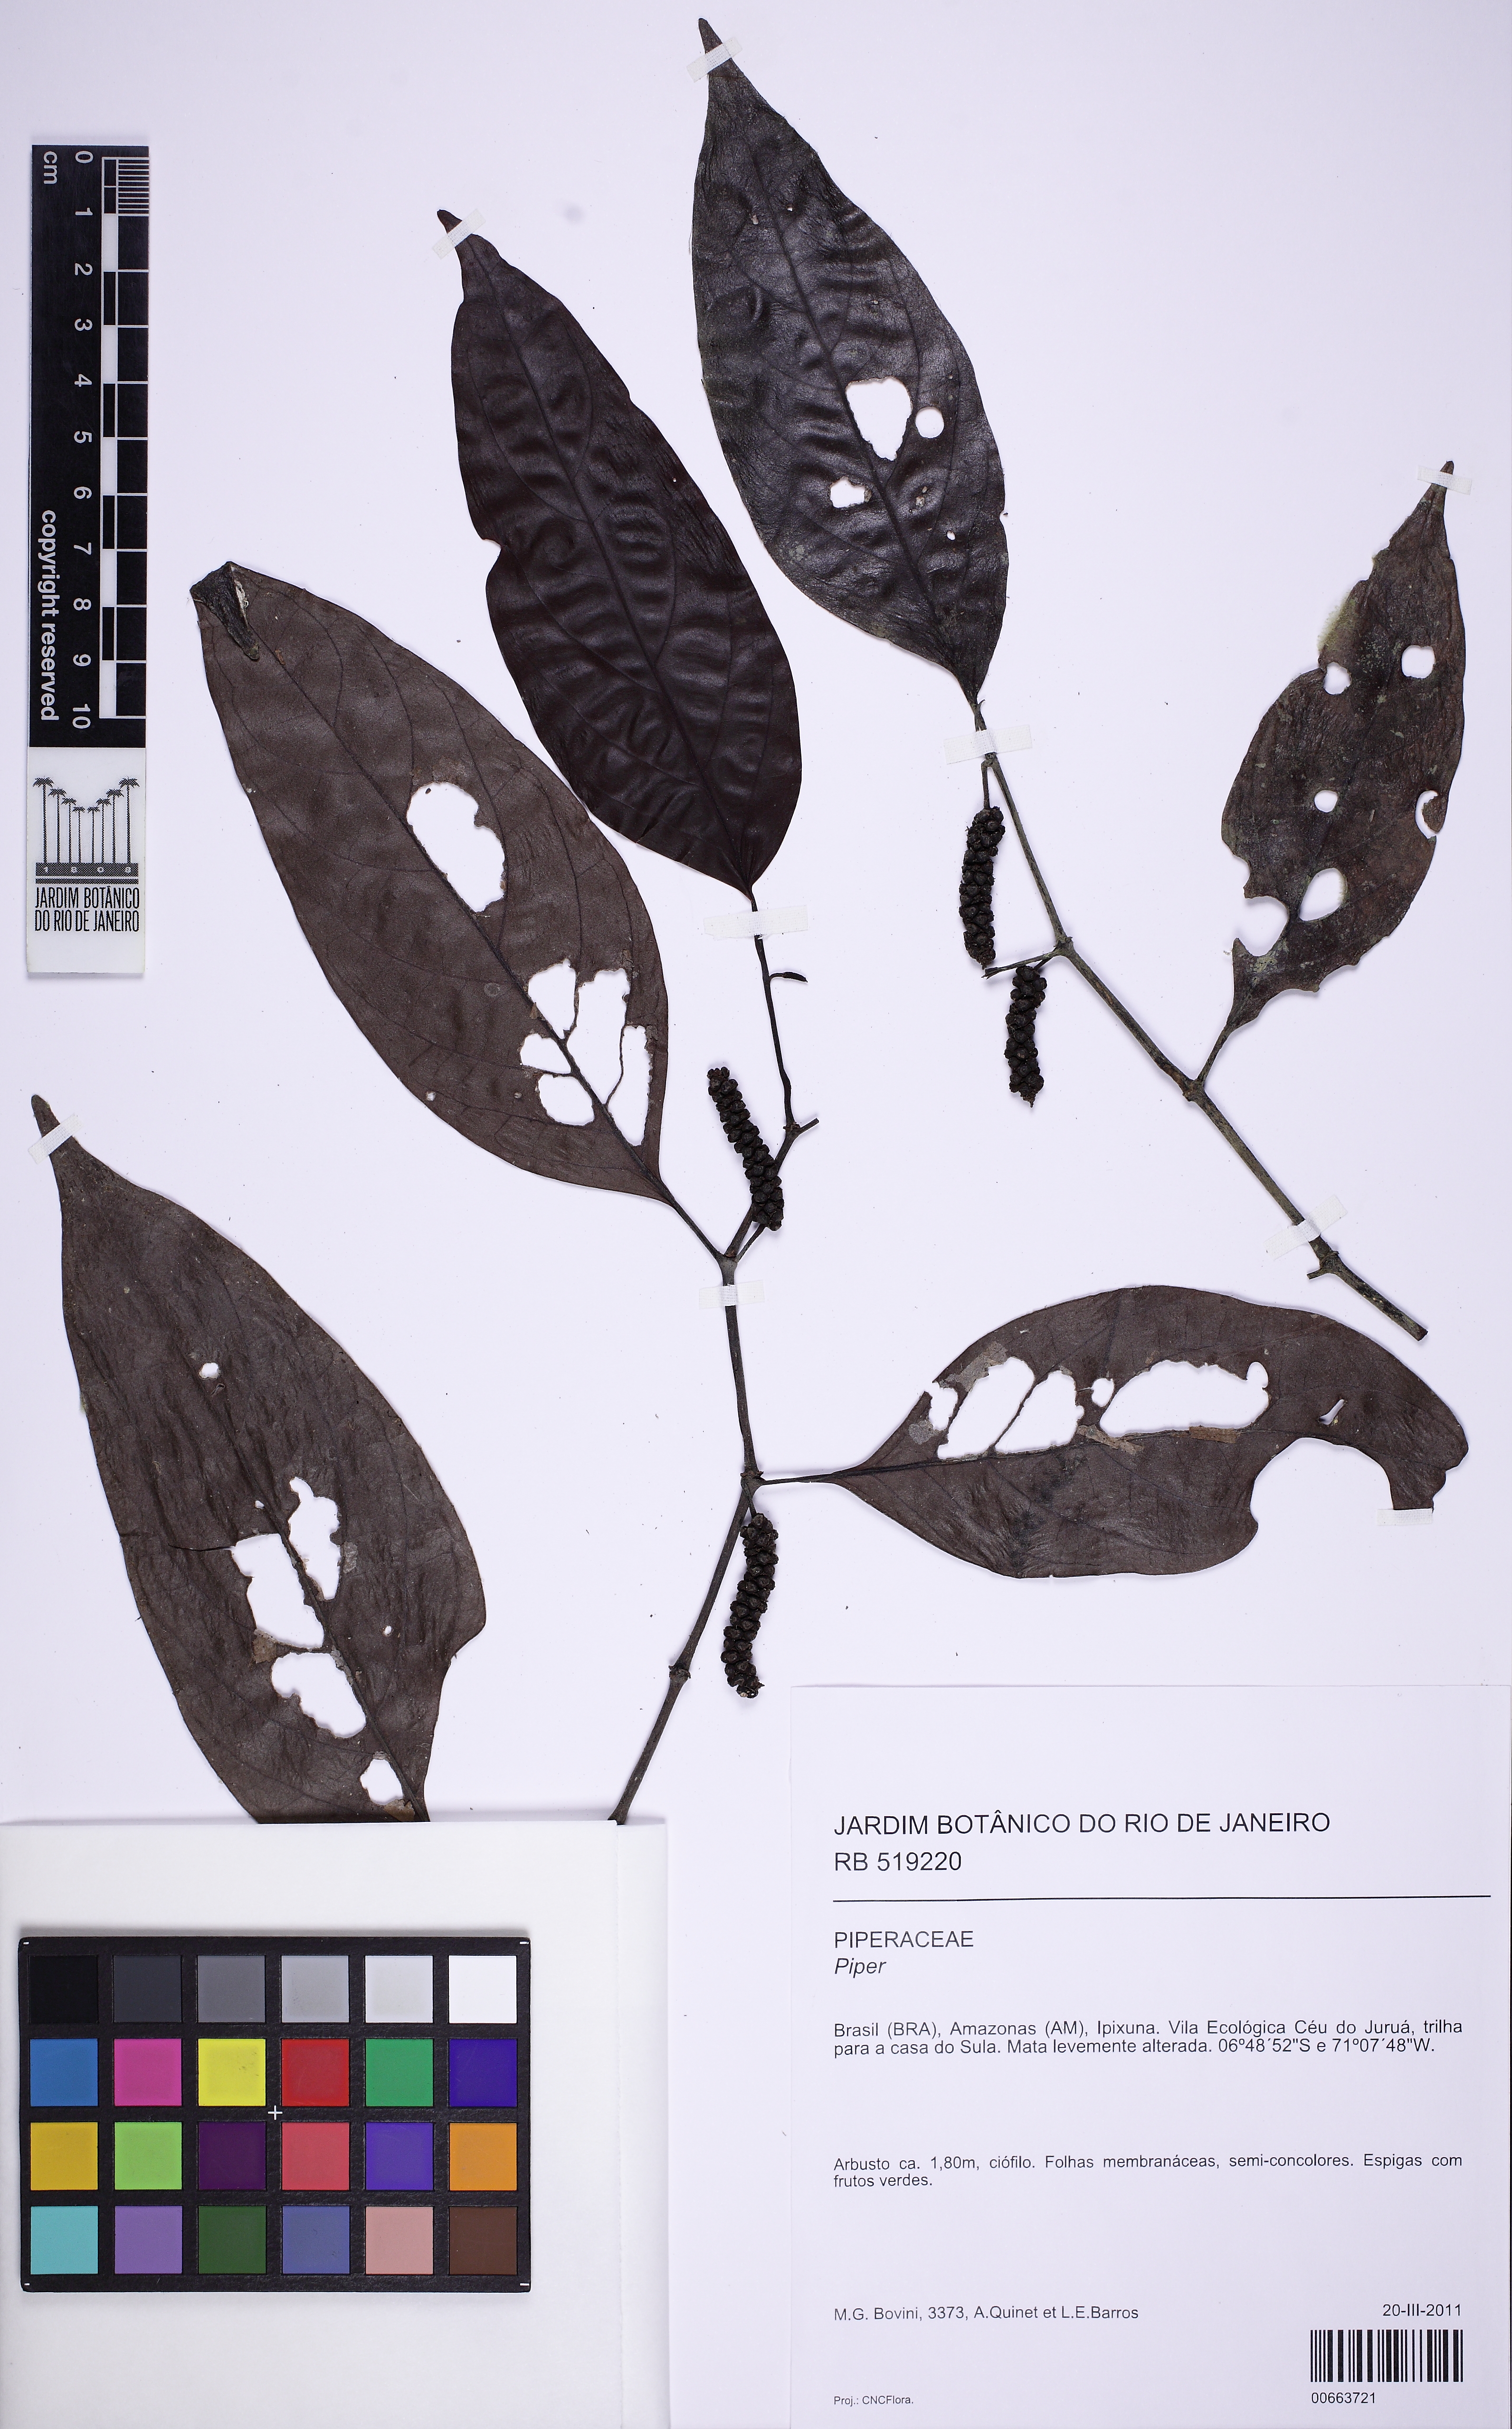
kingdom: Plantae
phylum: Tracheophyta
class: Magnoliopsida
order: Piperales
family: Piperaceae
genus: Piper
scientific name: Piper
